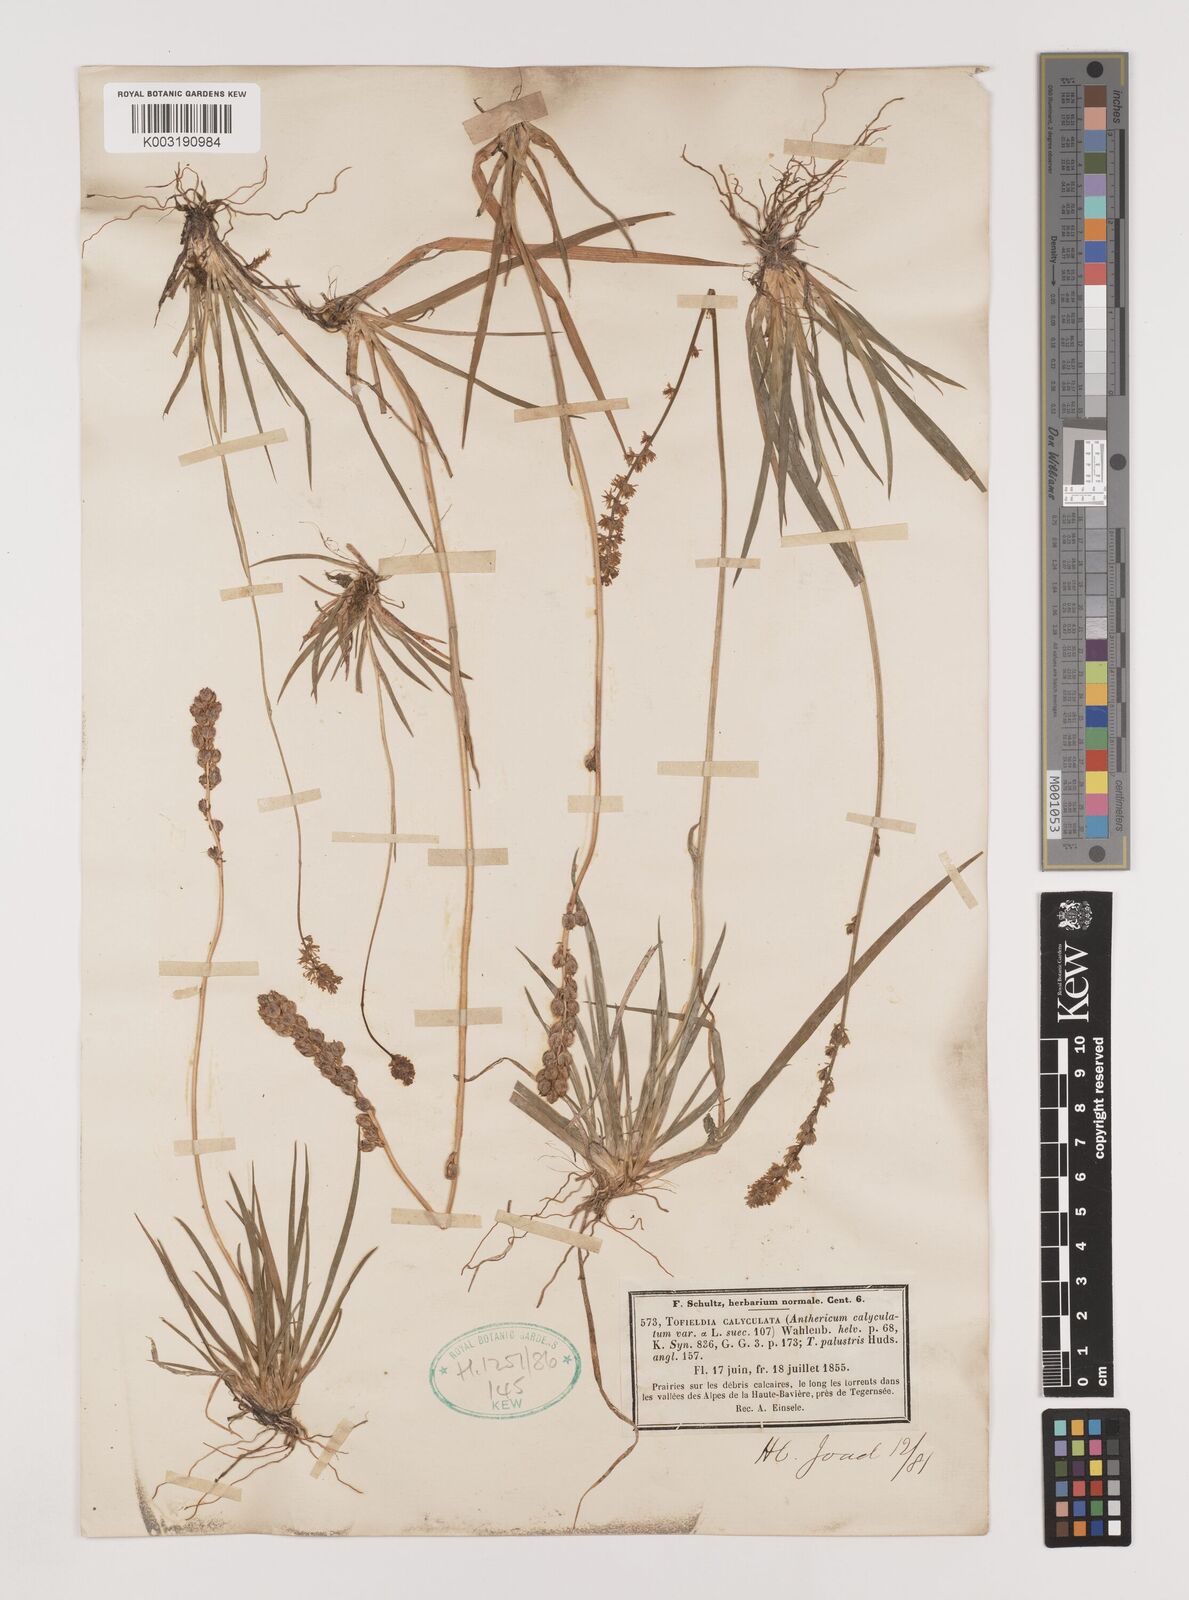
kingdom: Plantae
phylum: Tracheophyta
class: Liliopsida
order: Alismatales
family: Tofieldiaceae
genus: Tofieldia
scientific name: Tofieldia calyculata
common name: German-asphodel
